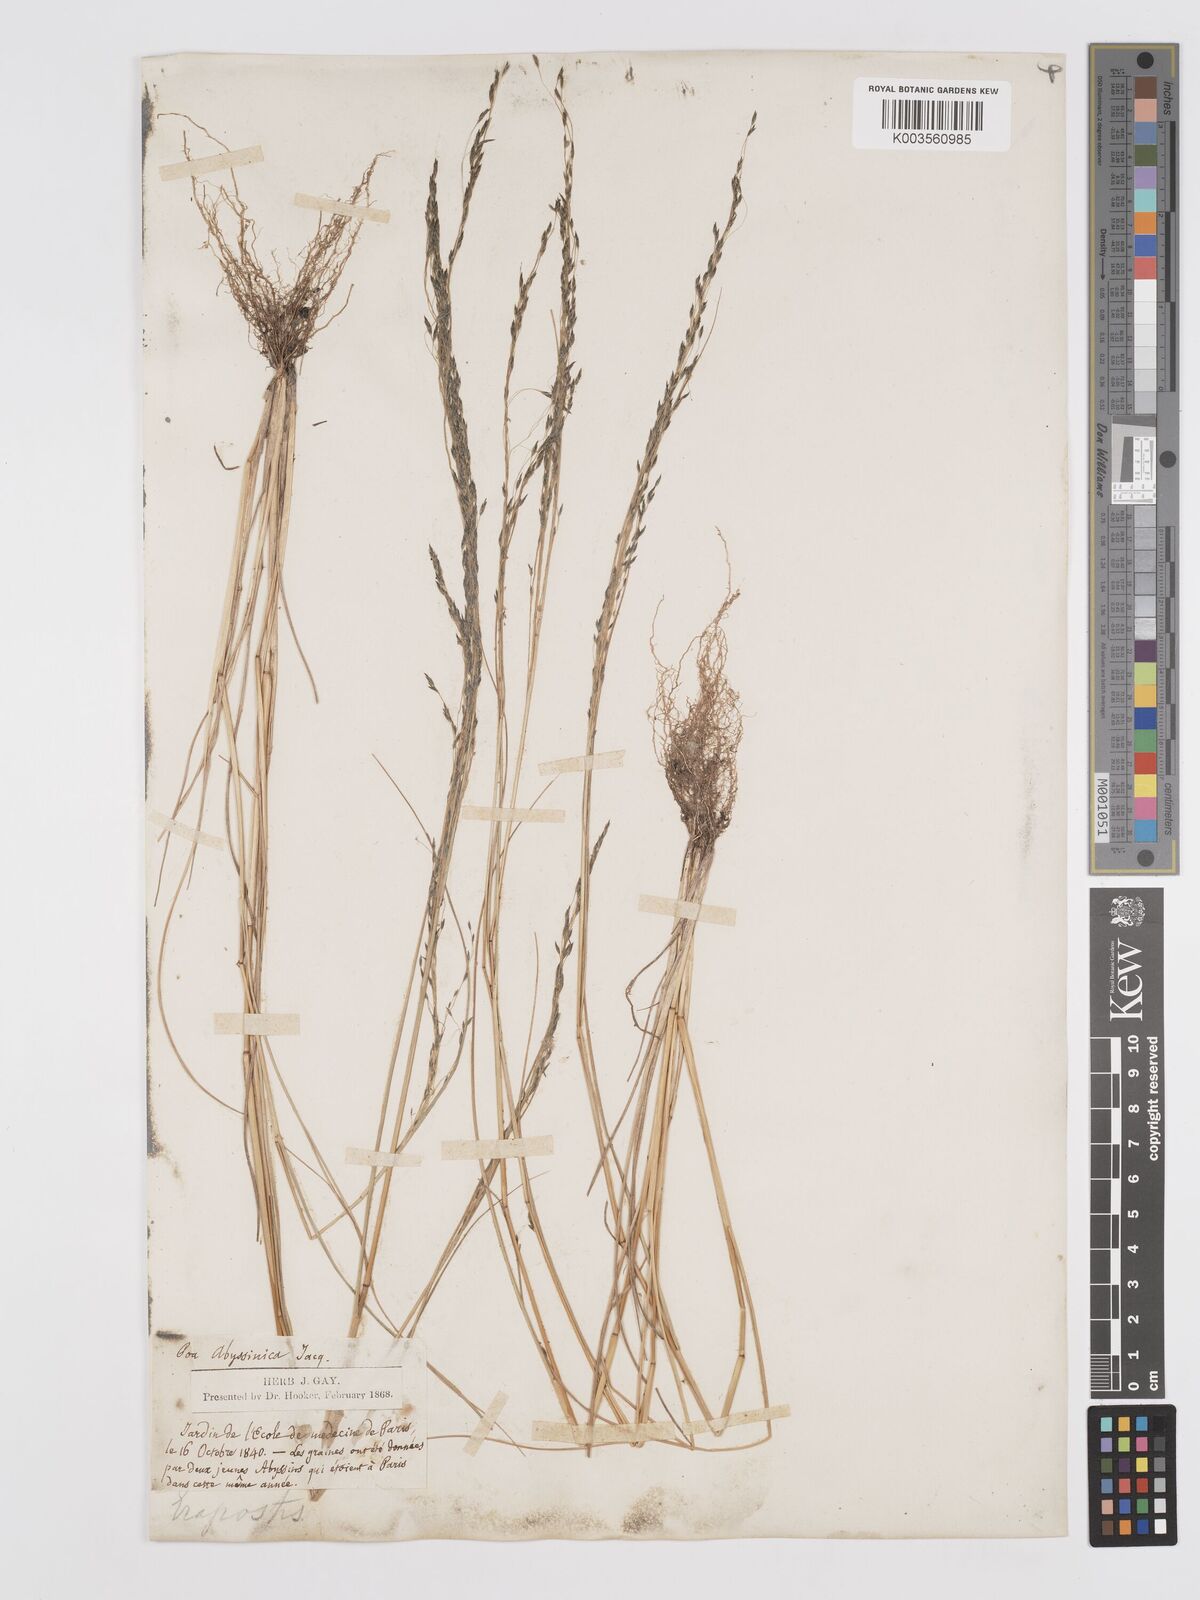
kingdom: Plantae
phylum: Tracheophyta
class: Liliopsida
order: Poales
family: Poaceae
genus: Eragrostis
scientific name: Eragrostis tef
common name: Teff
